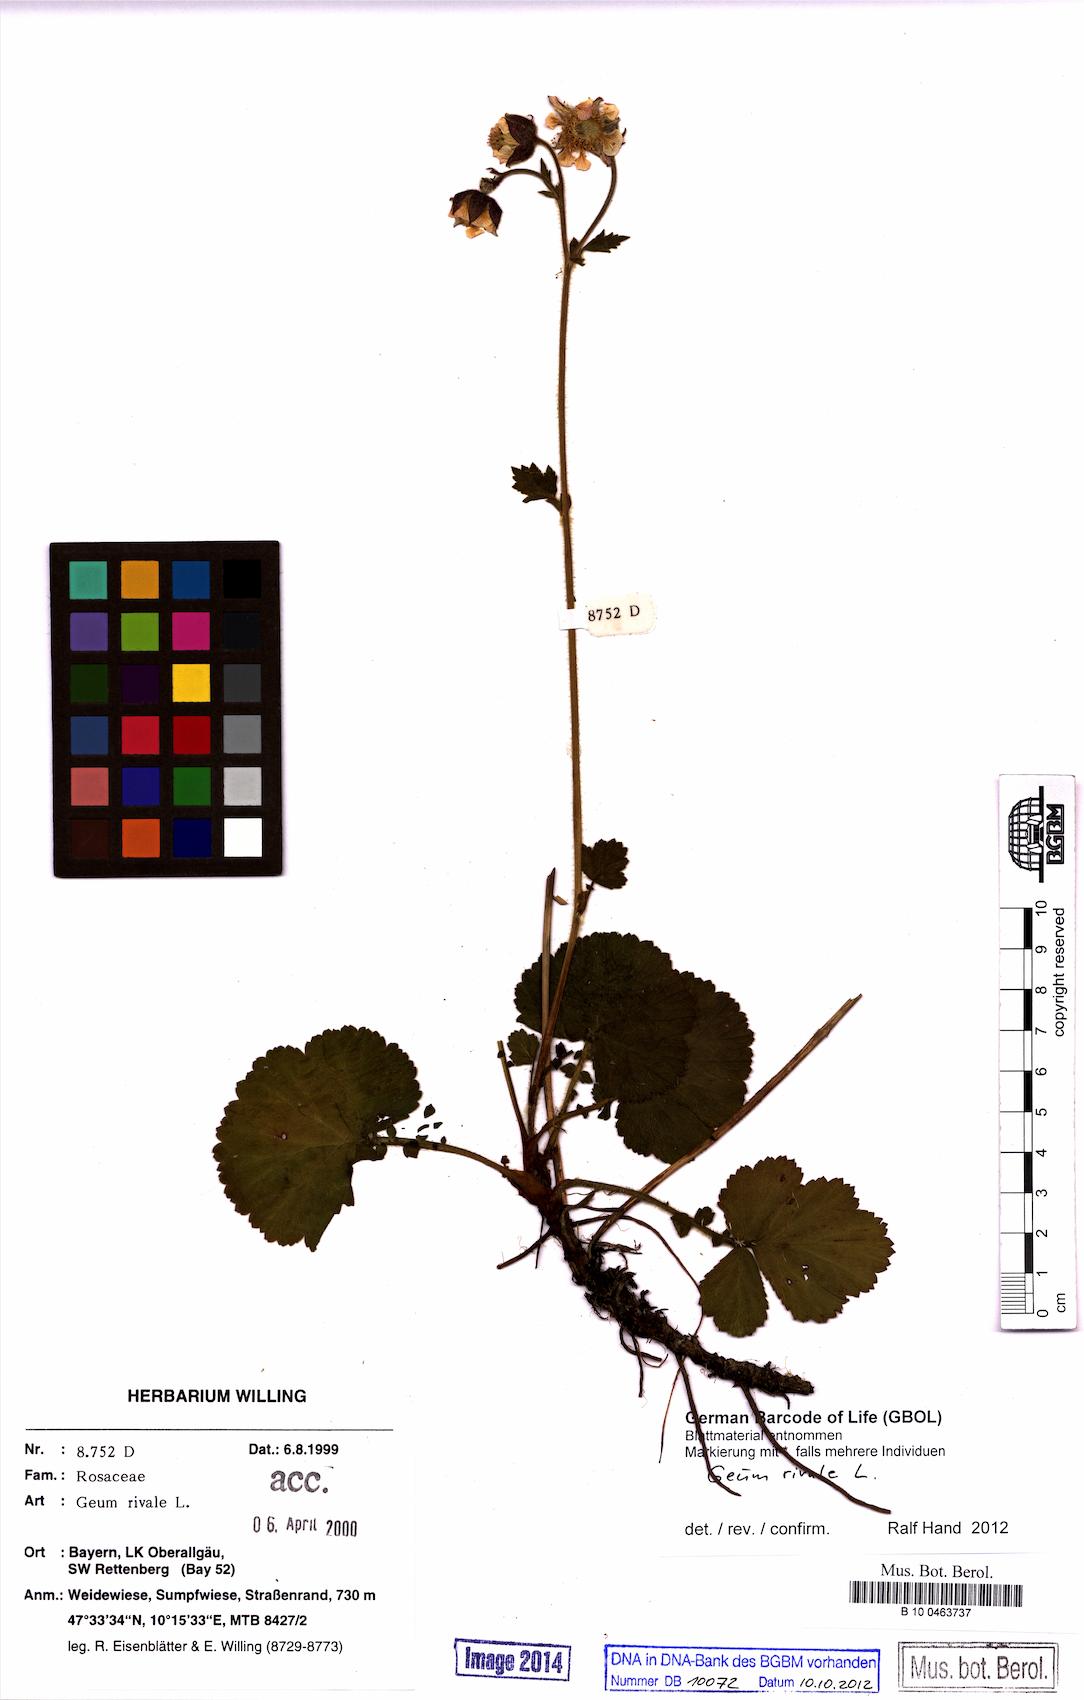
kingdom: Plantae
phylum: Tracheophyta
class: Magnoliopsida
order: Rosales
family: Rosaceae
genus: Geum
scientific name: Geum rivale
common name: Water avens
